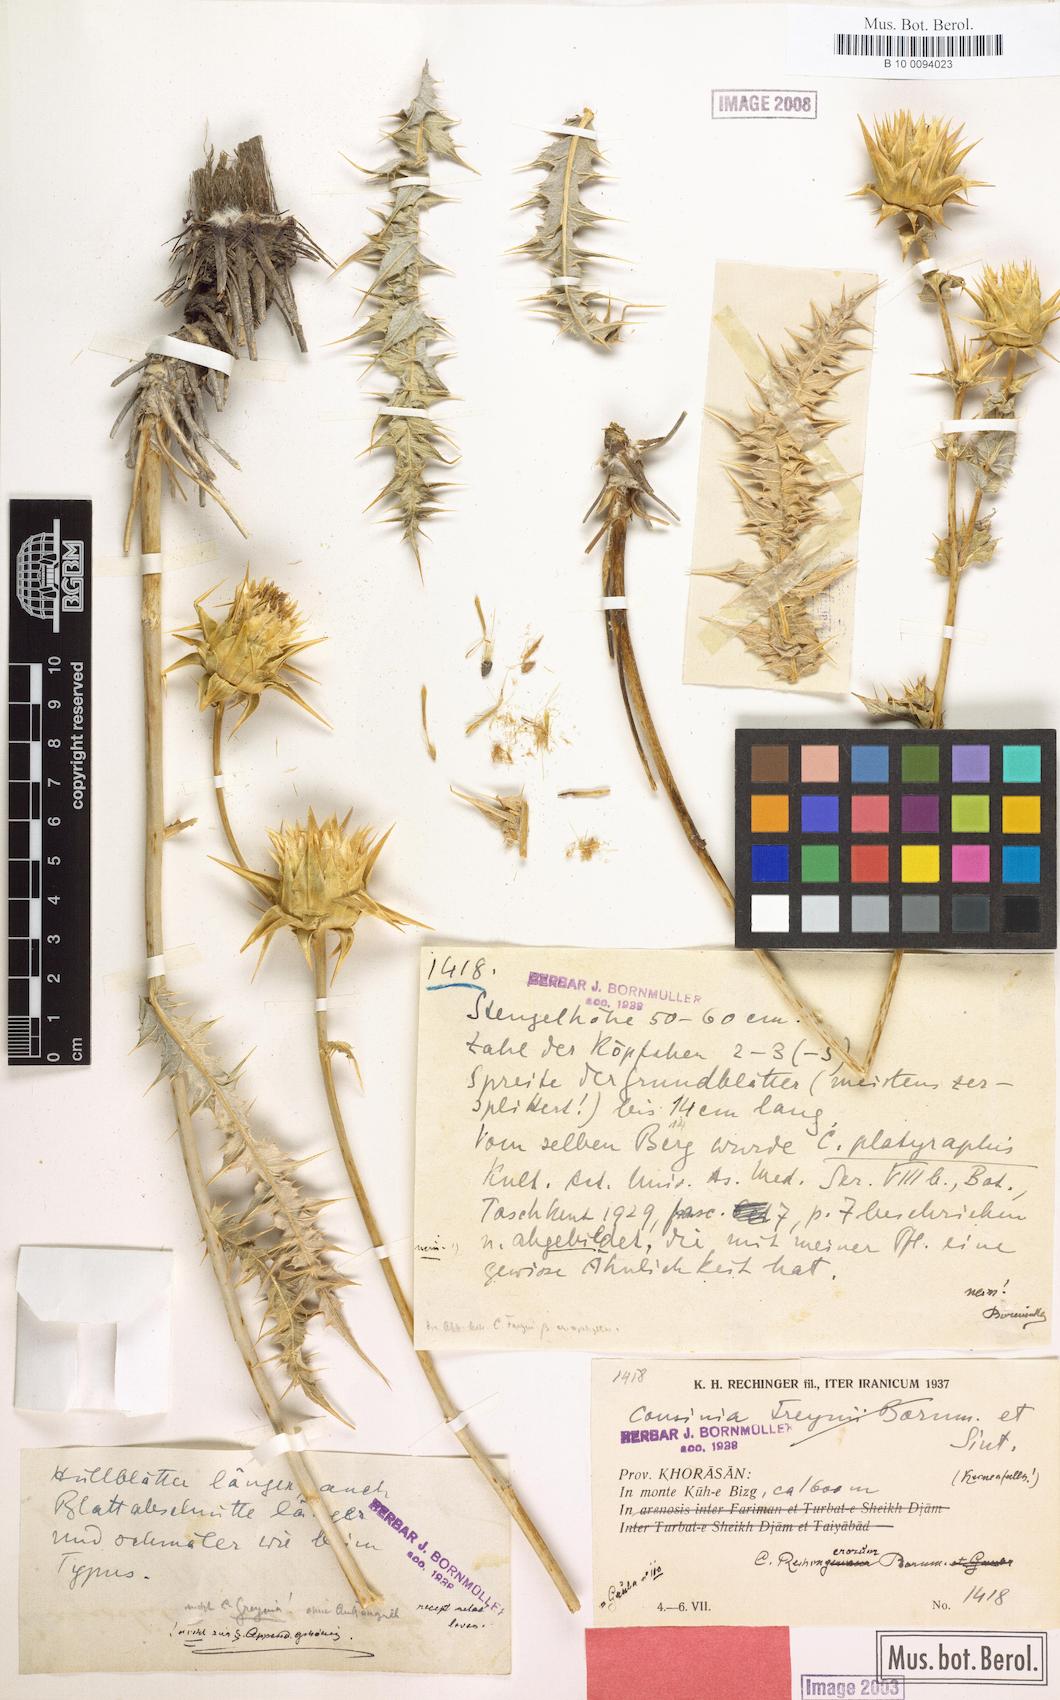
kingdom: Plantae
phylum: Tracheophyta
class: Magnoliopsida
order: Asterales
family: Asteraceae
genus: Cousinia
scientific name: Cousinia rechingerorum
